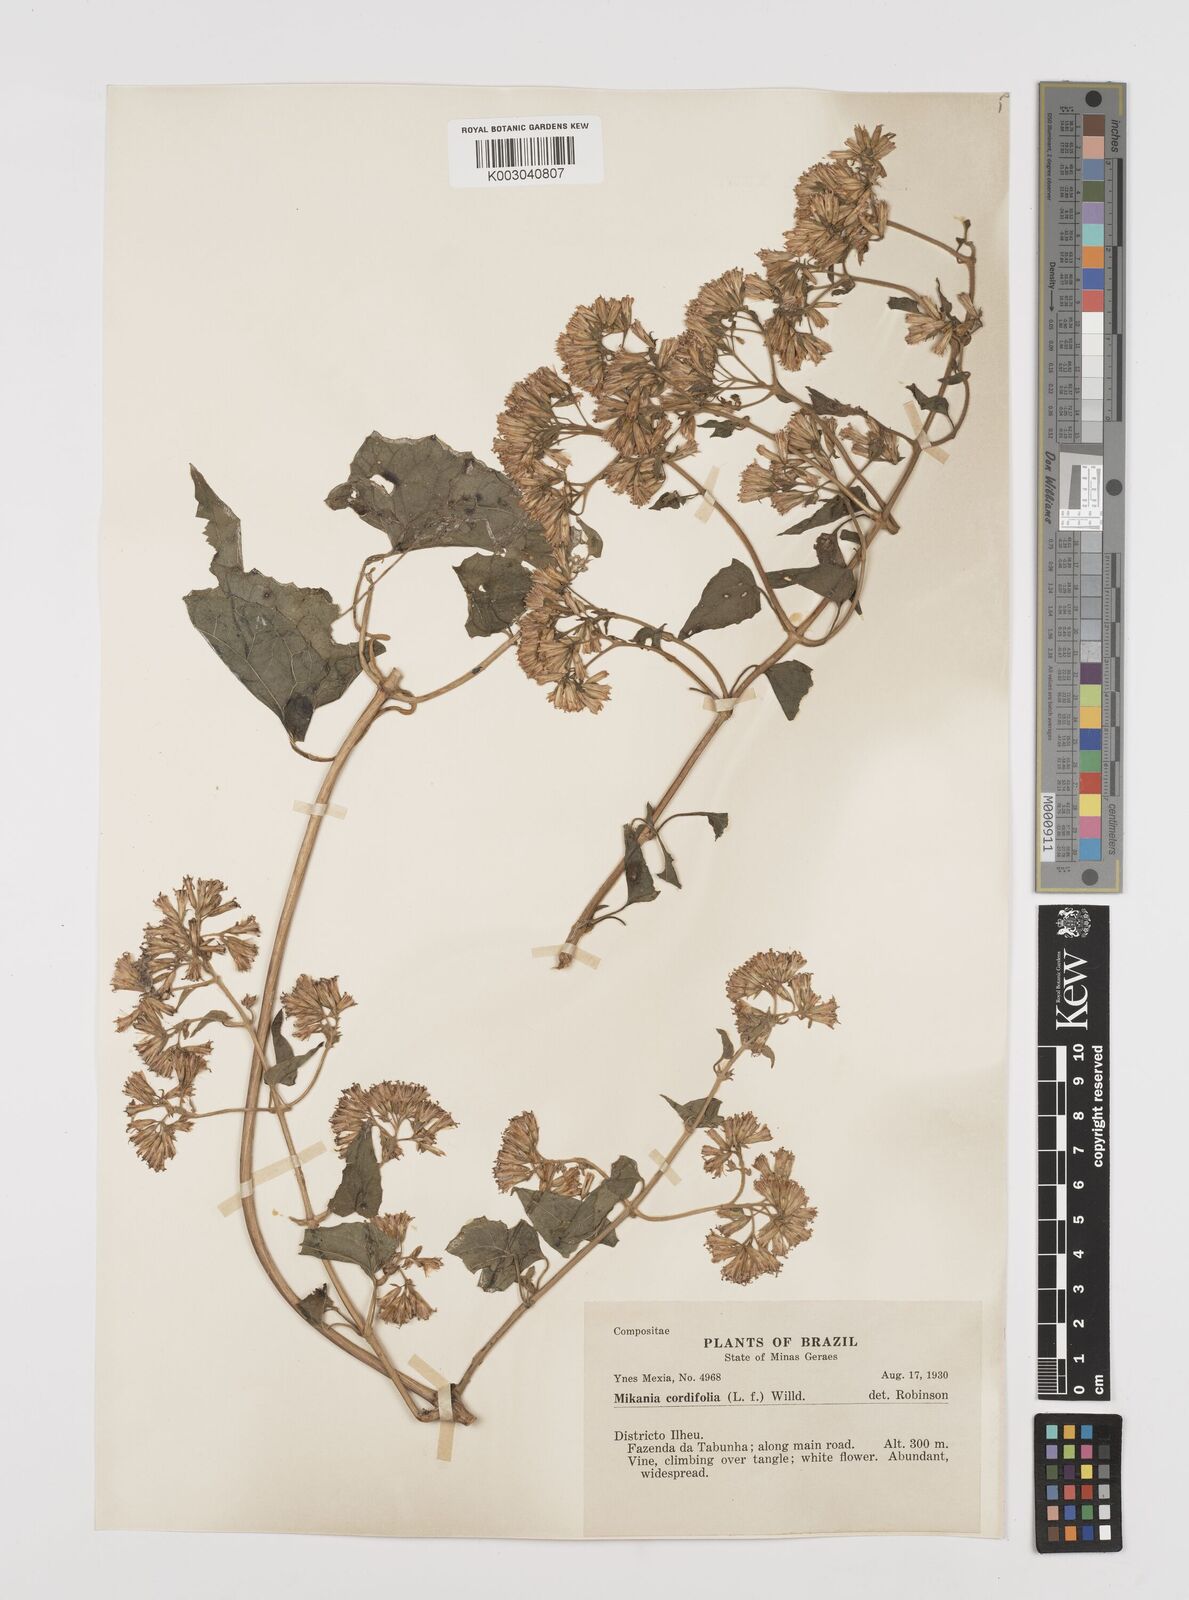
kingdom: Plantae
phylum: Tracheophyta
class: Magnoliopsida
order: Asterales
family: Asteraceae
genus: Mikania
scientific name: Mikania cordifolia
